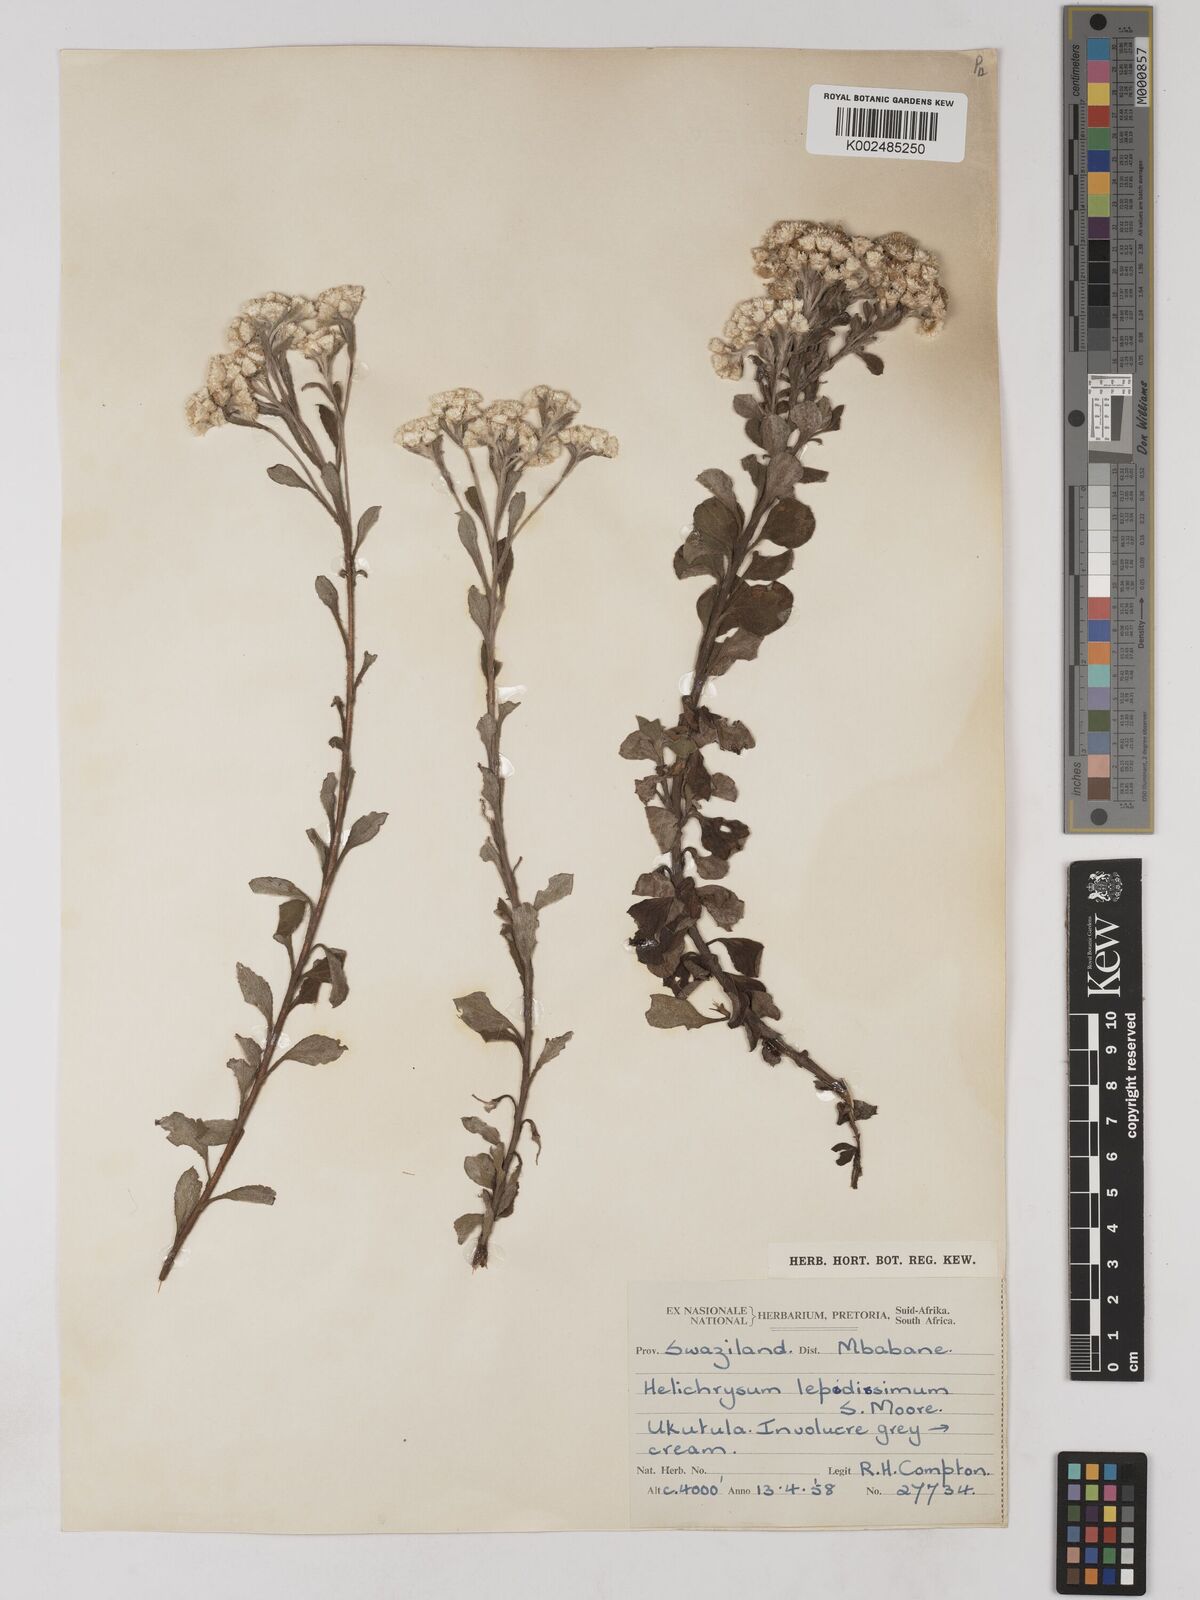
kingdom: Plantae
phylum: Tracheophyta
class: Magnoliopsida
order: Asterales
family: Asteraceae
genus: Helichrysum
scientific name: Helichrysum lepidissimum
